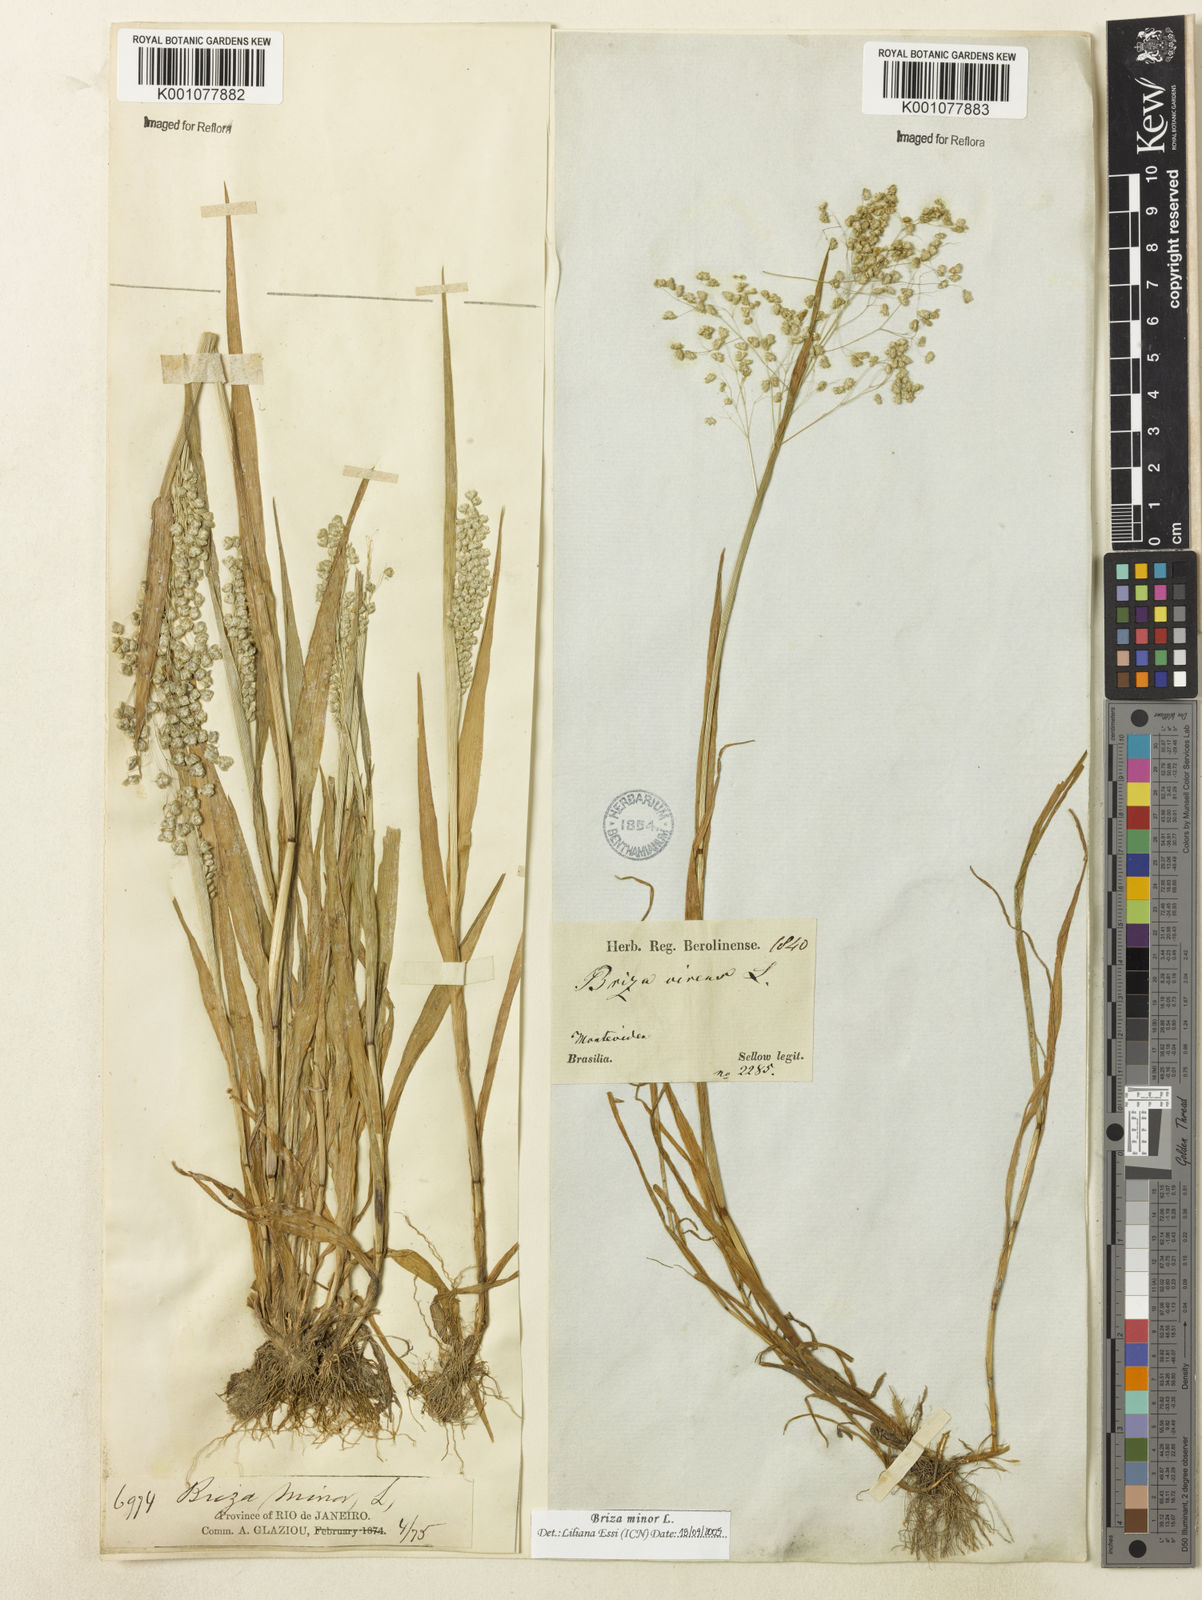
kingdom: Plantae
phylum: Tracheophyta
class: Liliopsida
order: Poales
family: Poaceae
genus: Briza
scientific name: Briza minor
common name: Lesser quaking-grass
